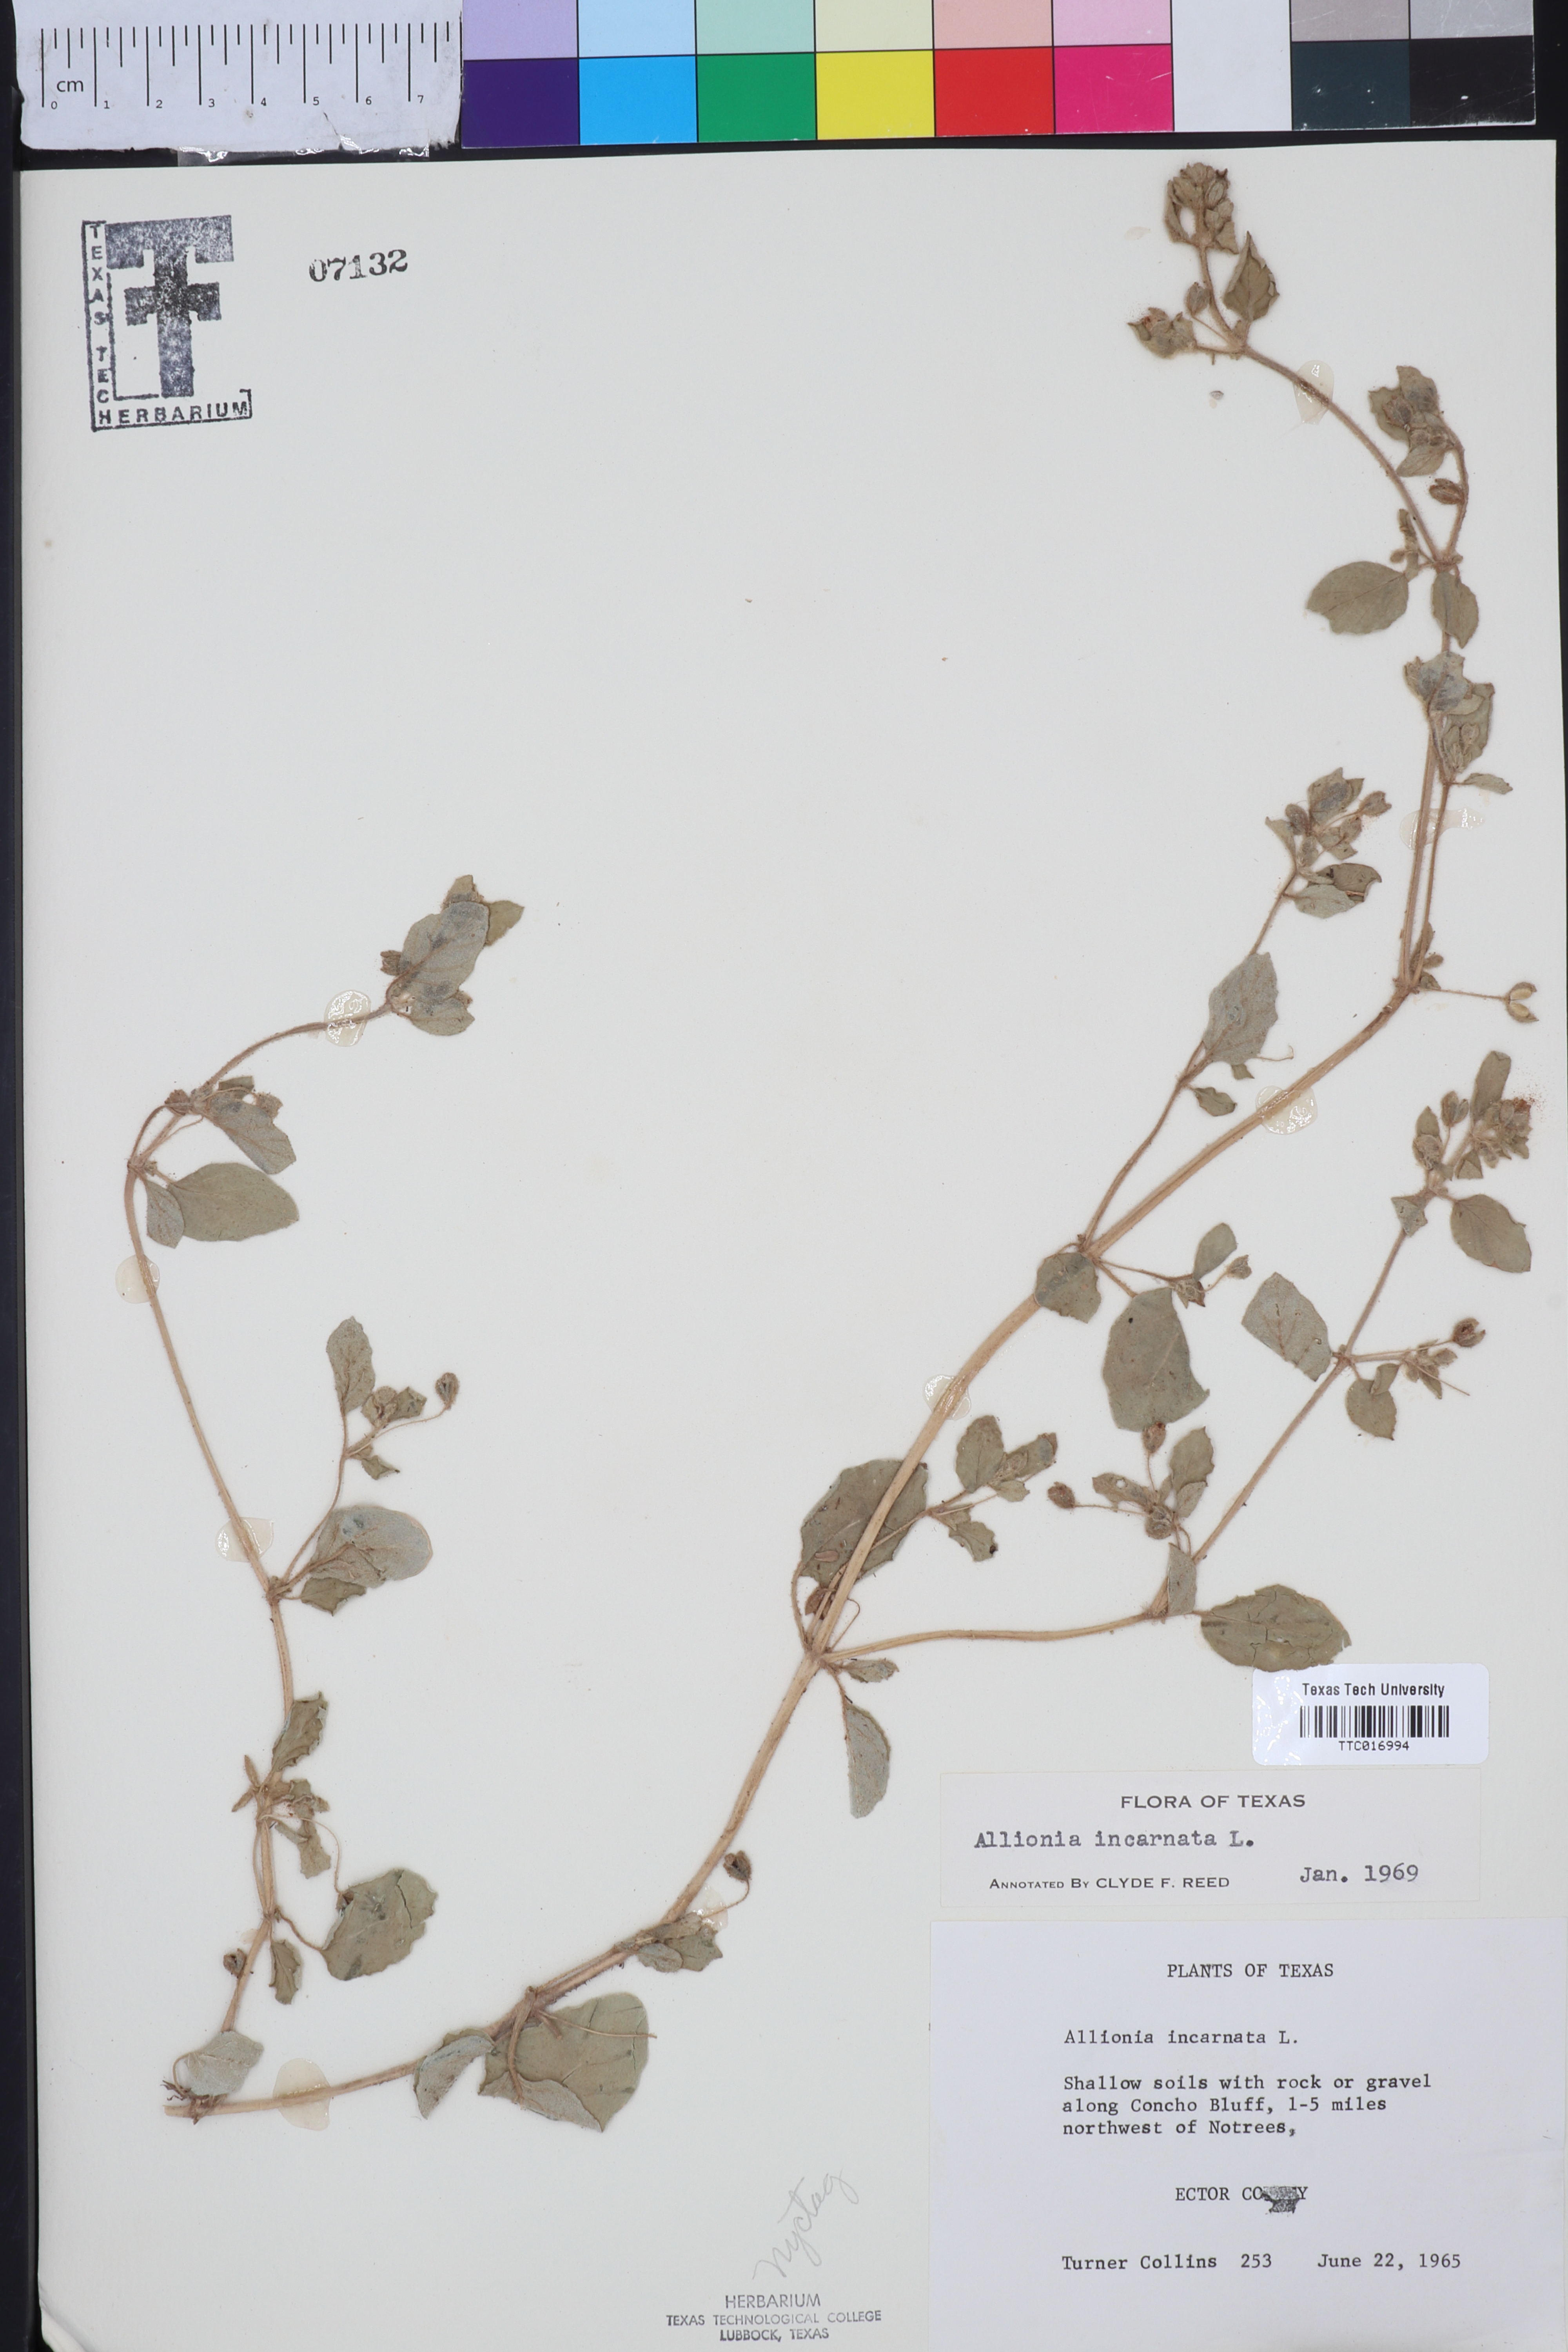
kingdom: Plantae
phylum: Tracheophyta
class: Magnoliopsida
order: Caryophyllales
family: Nyctaginaceae
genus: Allionia
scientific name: Allionia incarnata
